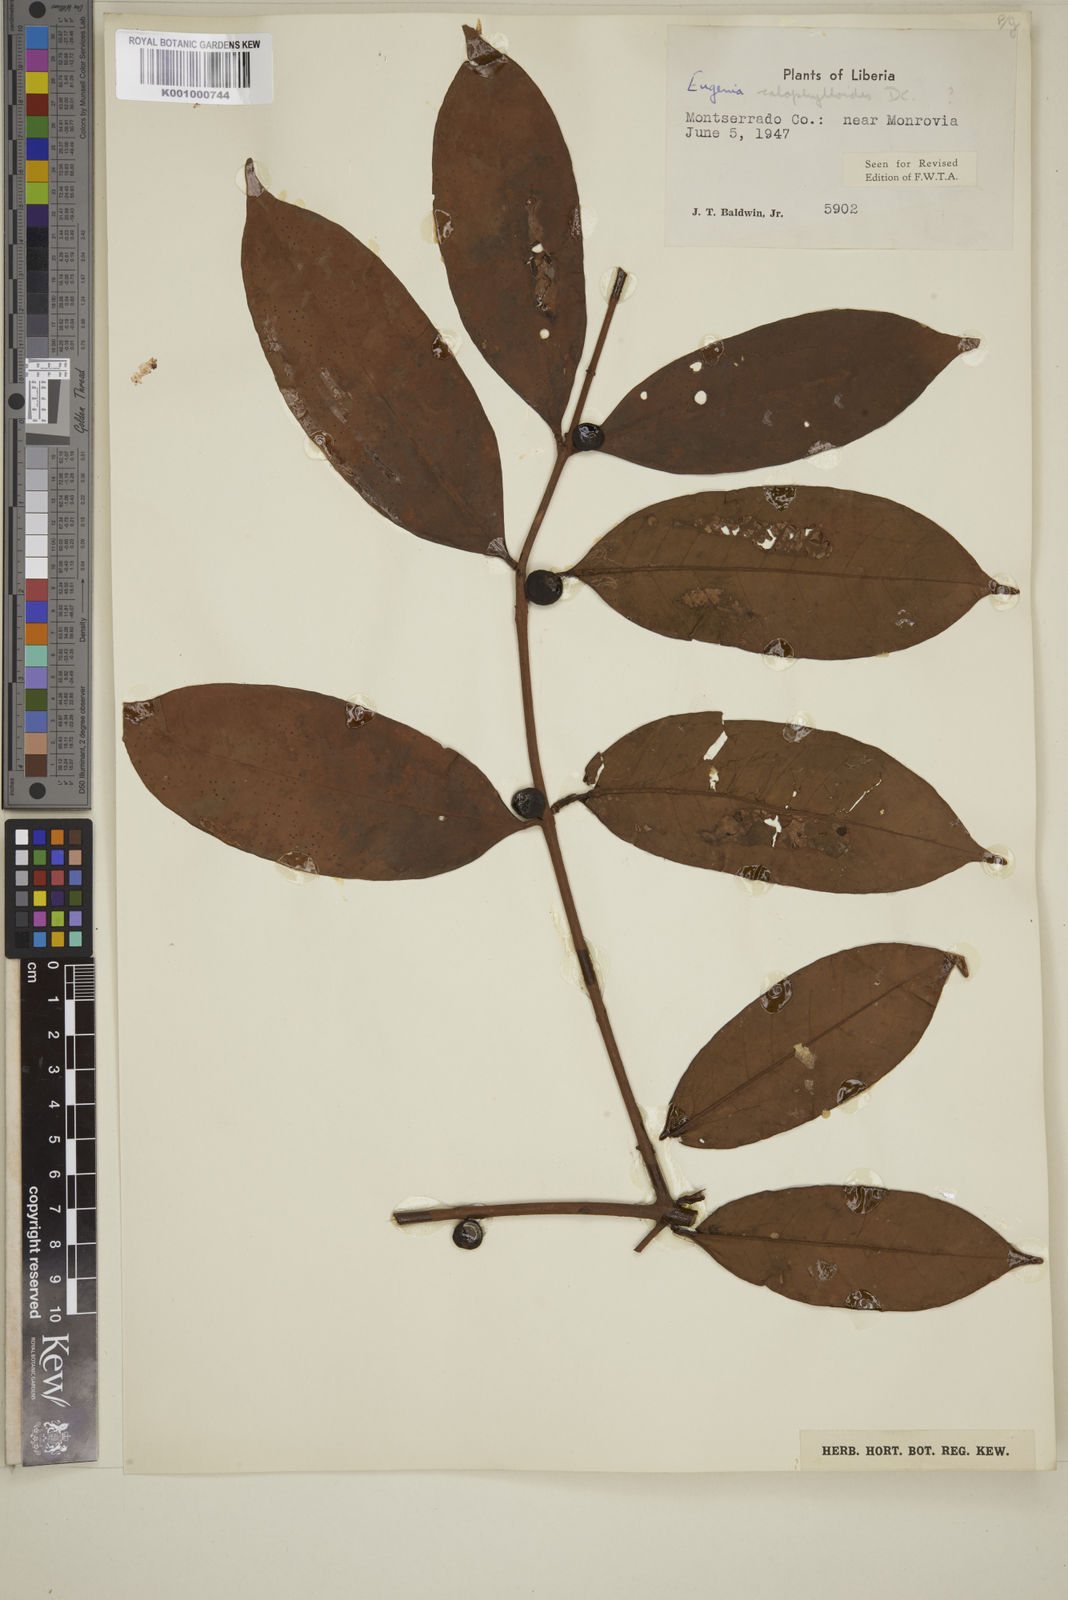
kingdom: Plantae
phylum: Tracheophyta
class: Magnoliopsida
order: Myrtales
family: Myrtaceae
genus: Eugenia
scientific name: Eugenia calophylloides
